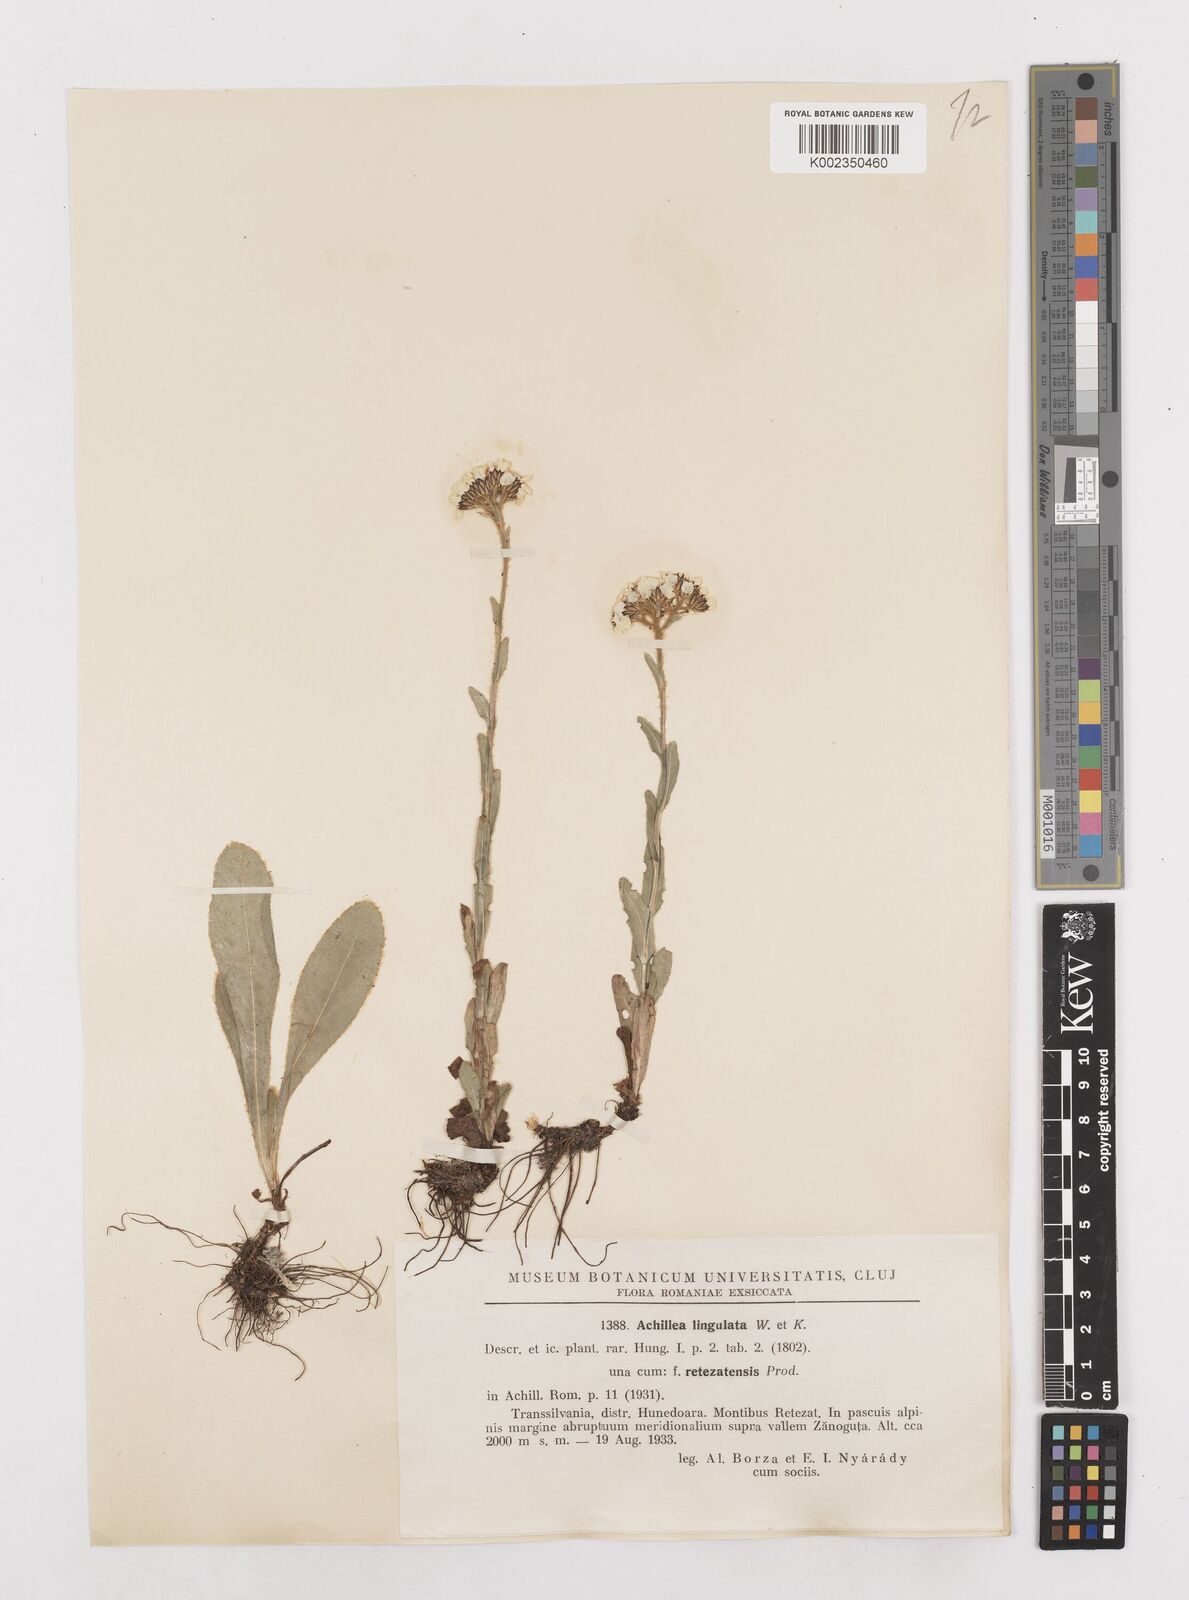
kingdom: Plantae
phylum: Tracheophyta
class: Magnoliopsida
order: Asterales
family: Asteraceae
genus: Achillea
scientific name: Achillea lingulata
